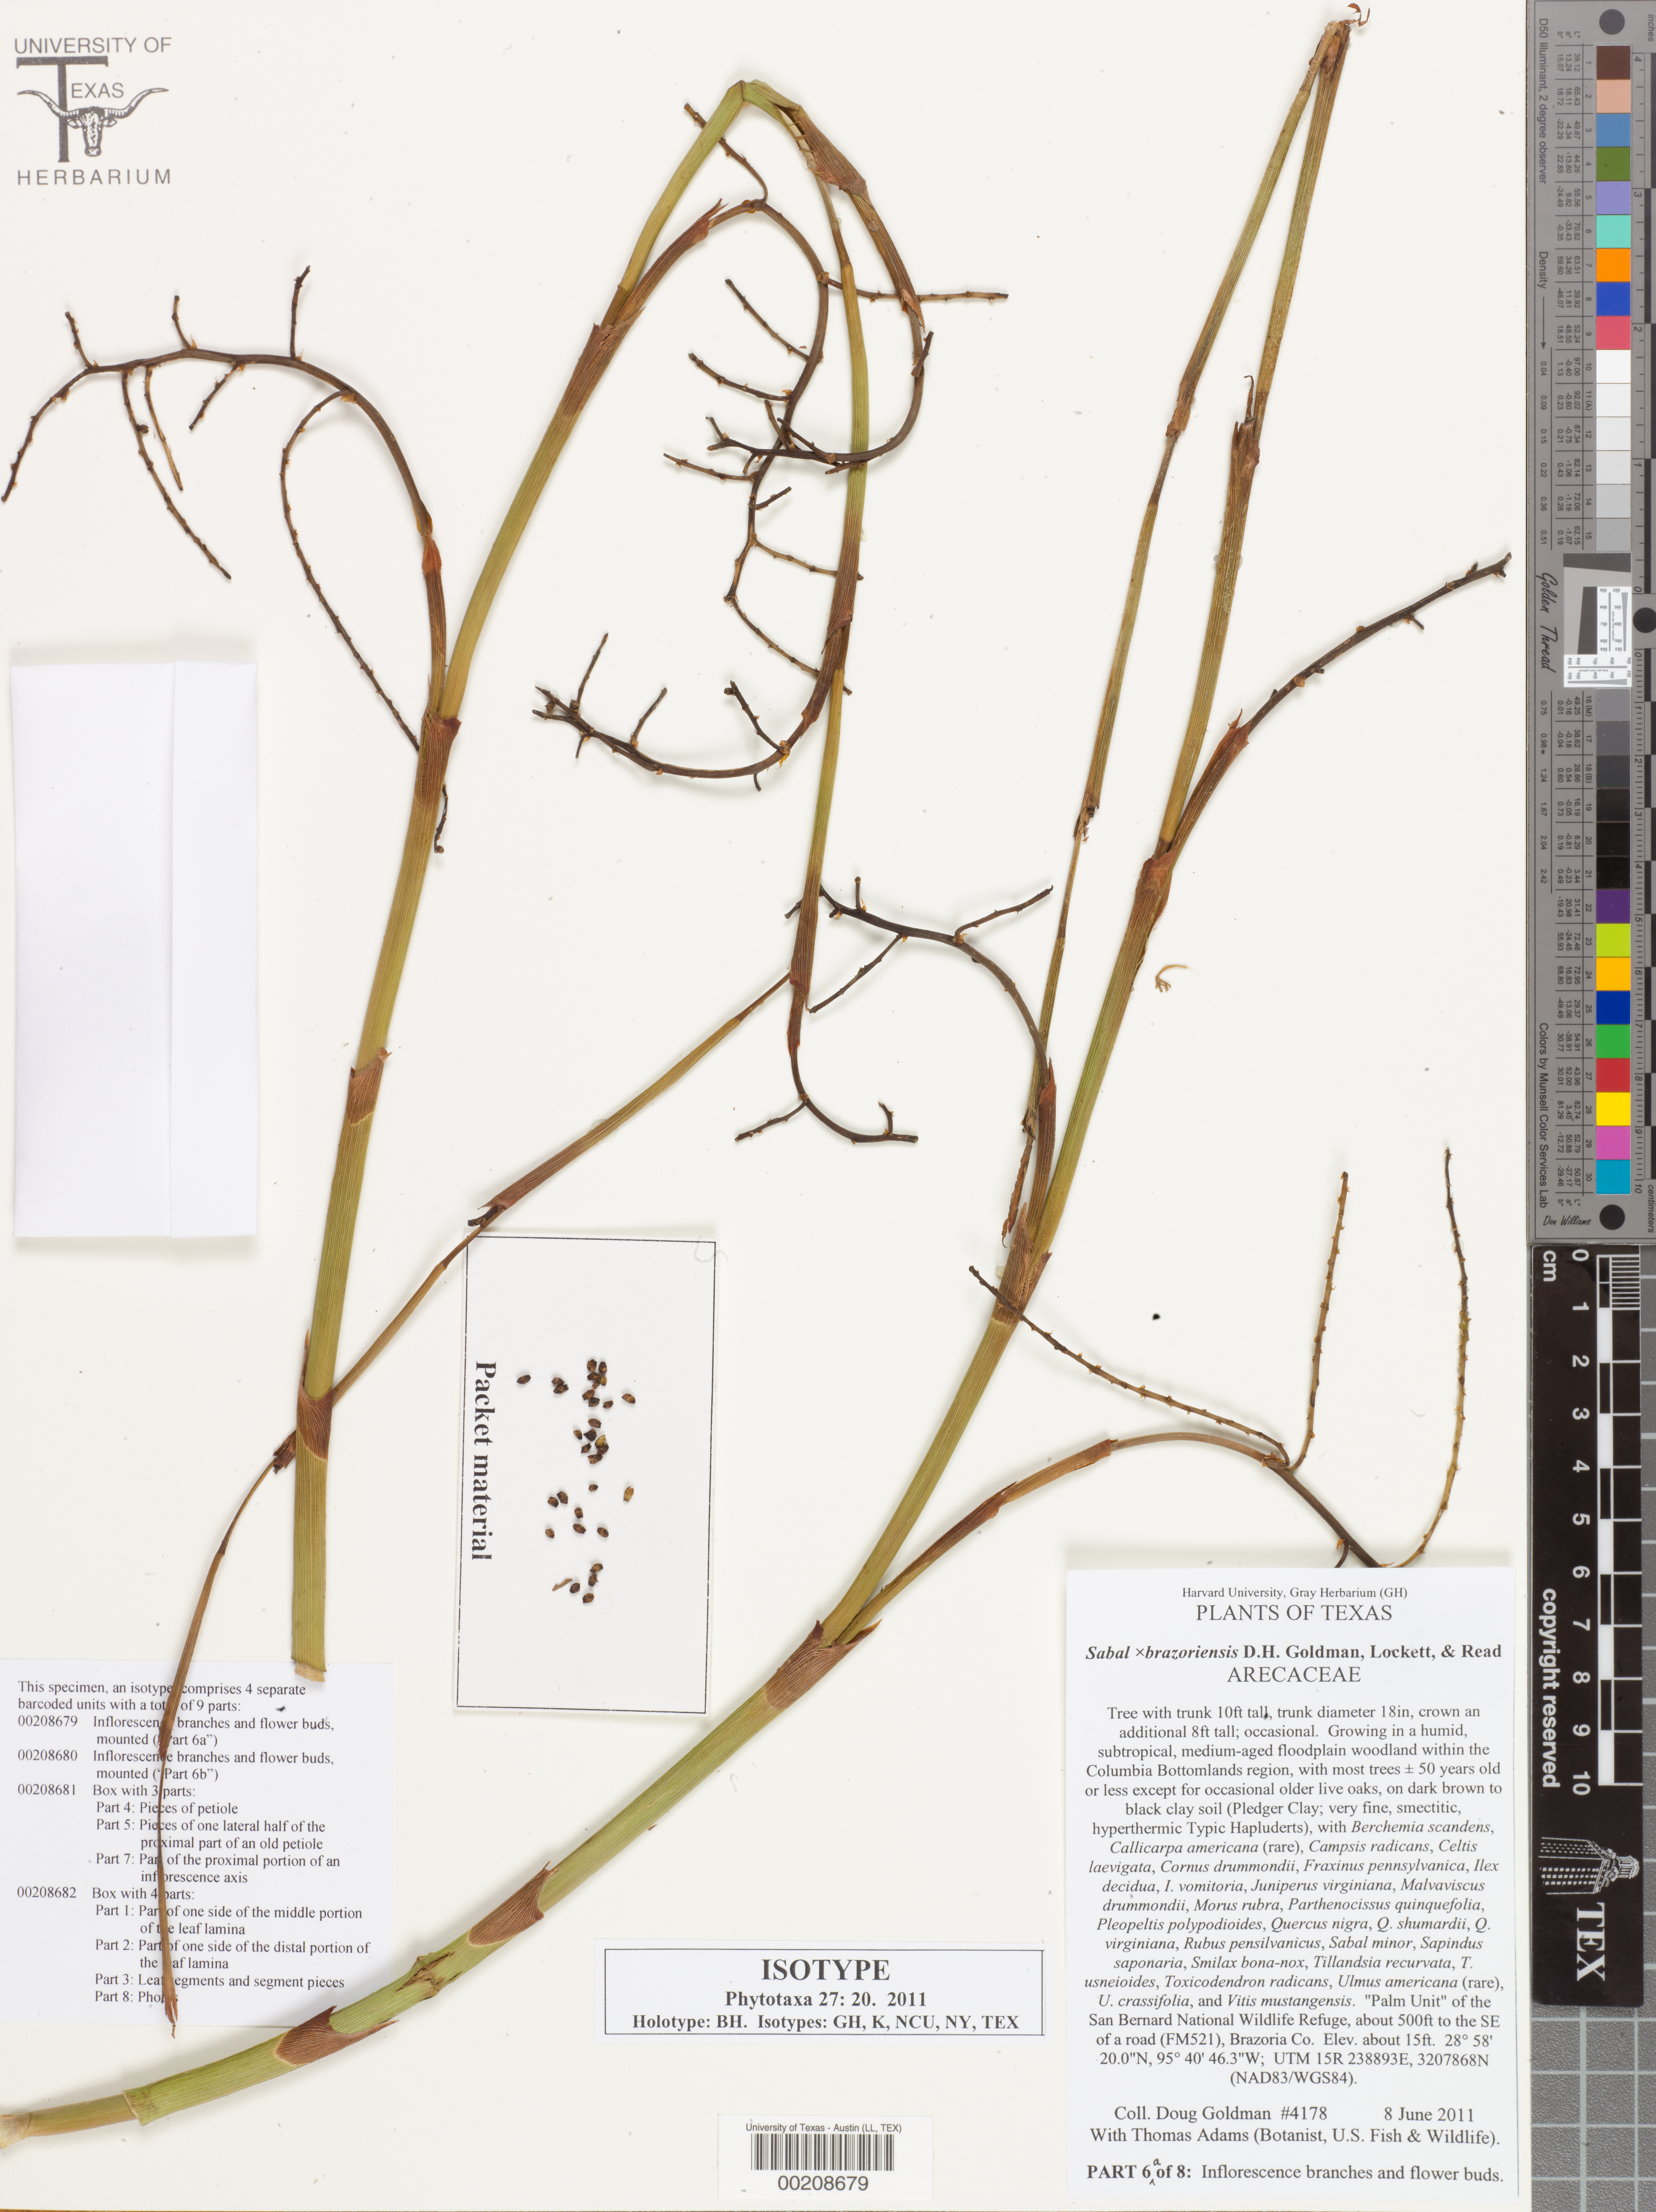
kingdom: Plantae
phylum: Tracheophyta
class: Magnoliopsida
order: Malpighiales
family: Hypericaceae
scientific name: Hypericaceae
